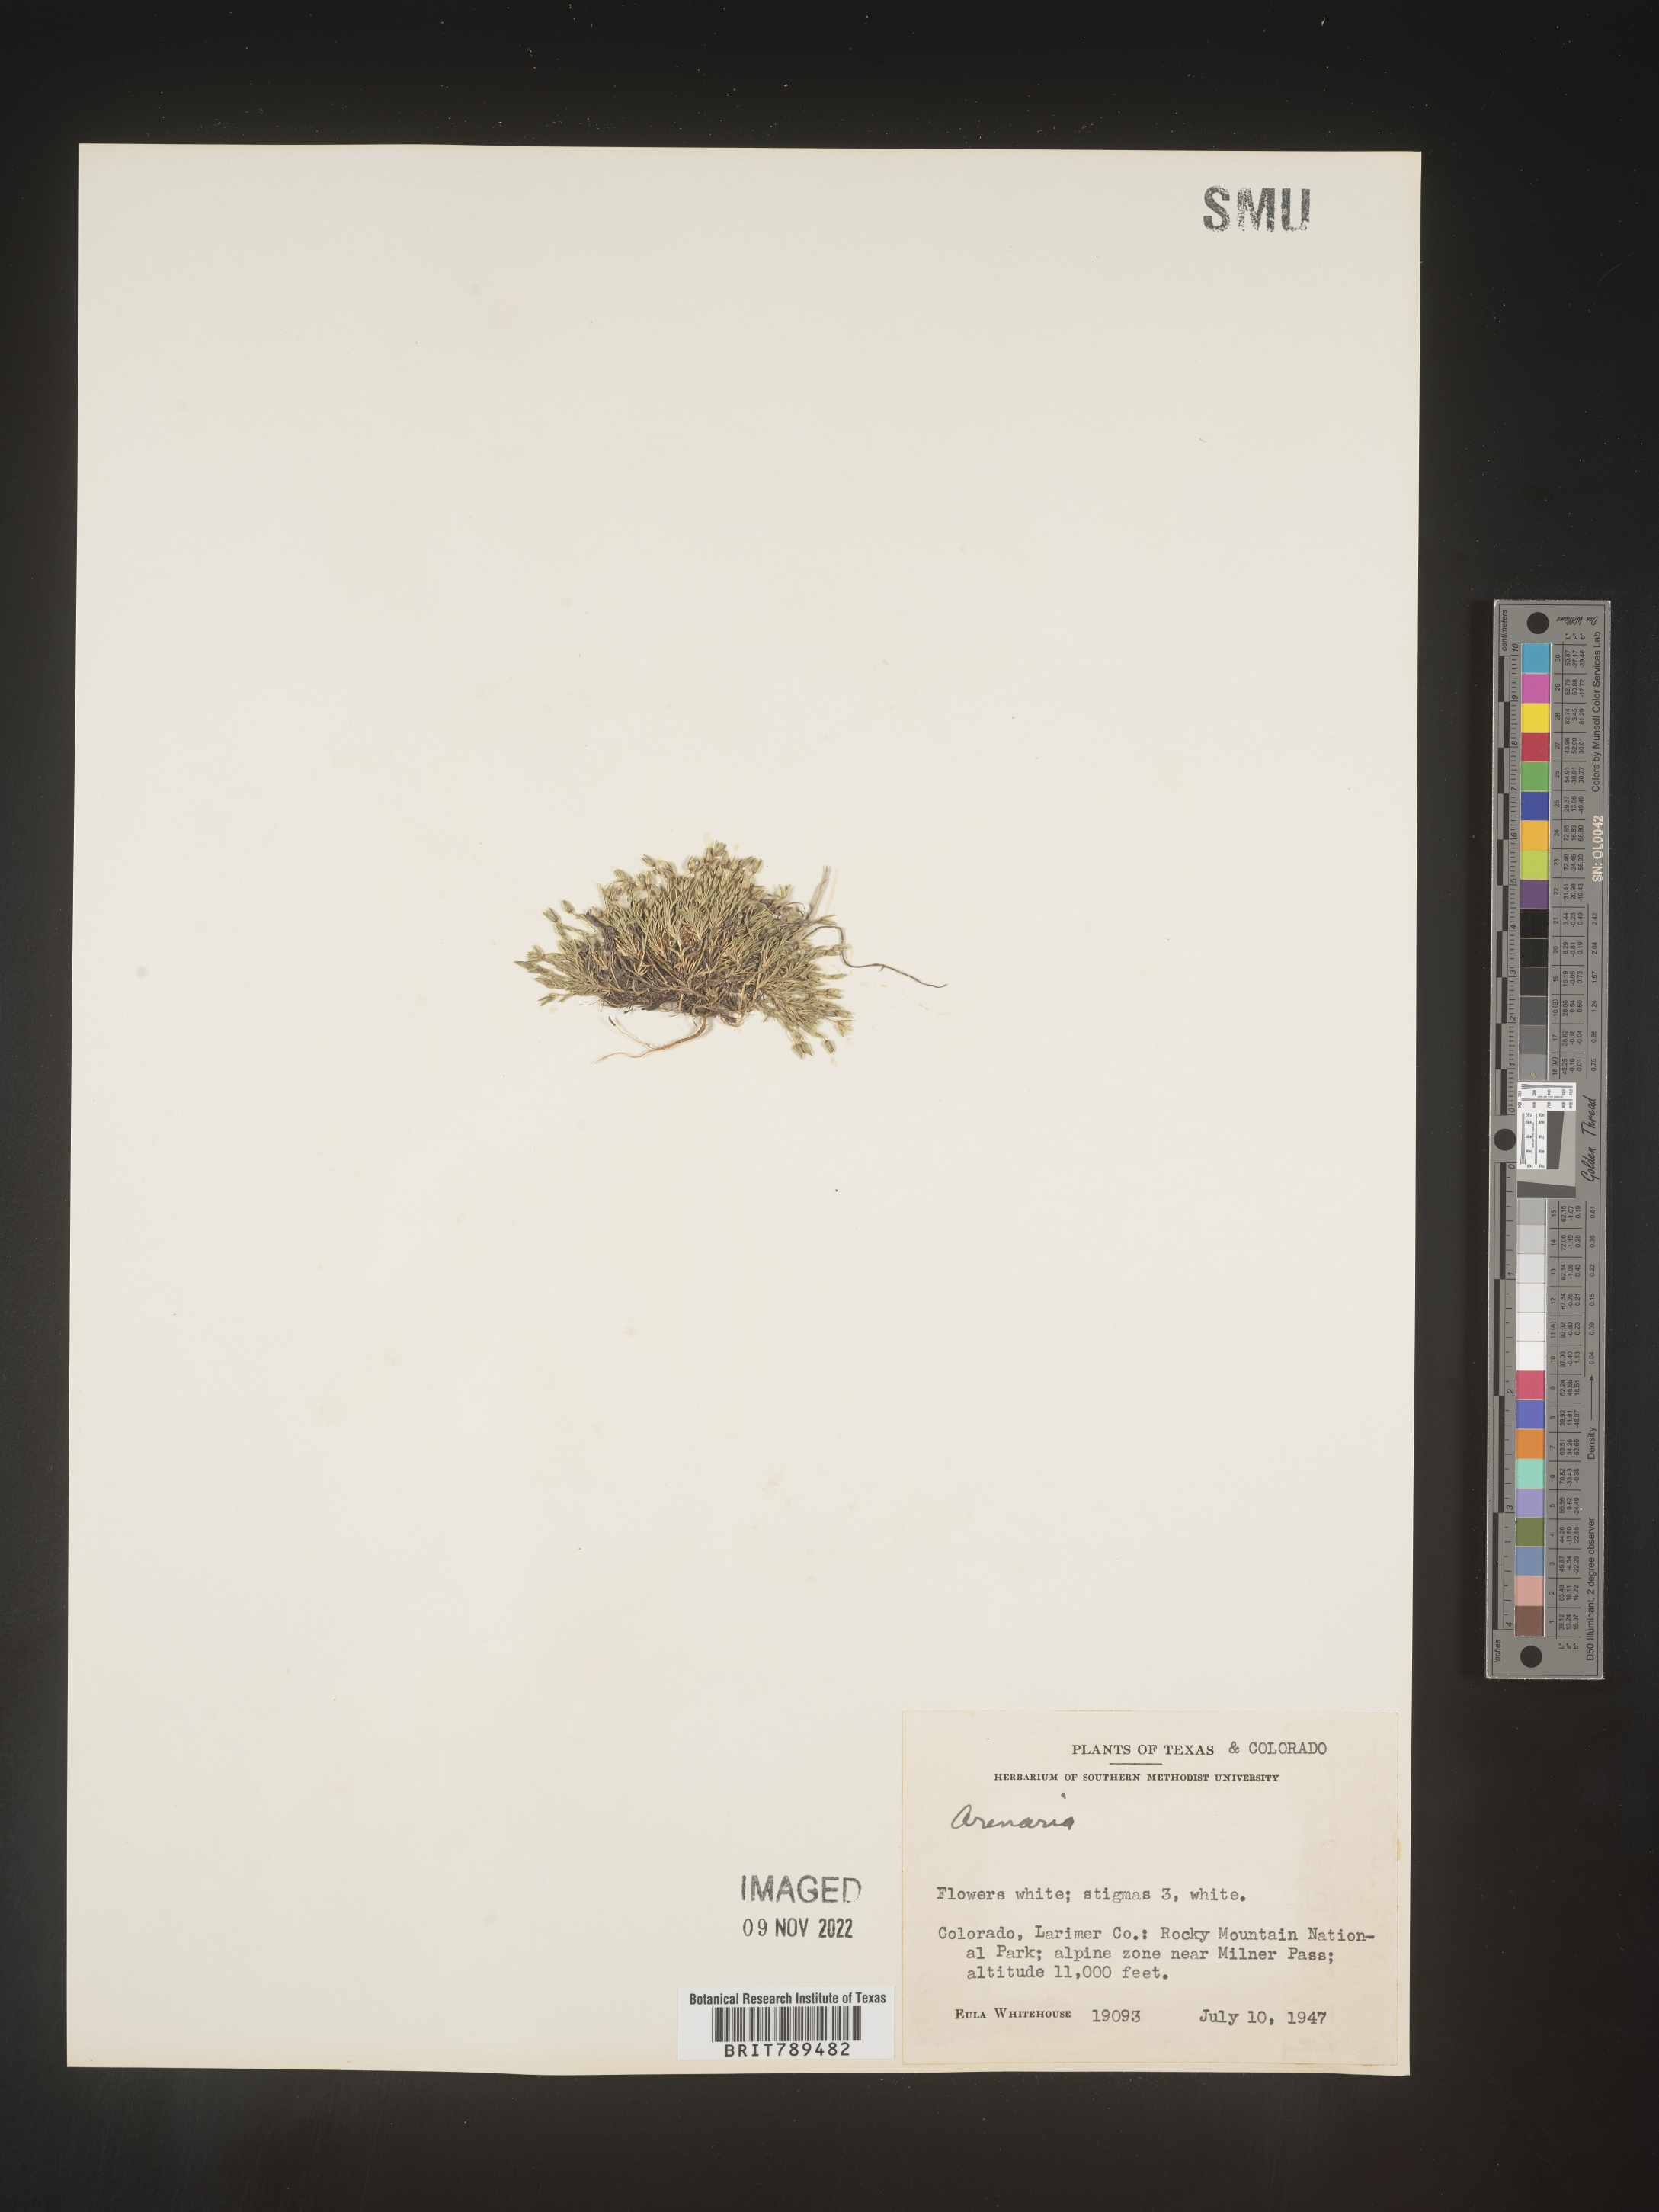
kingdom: Plantae
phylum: Tracheophyta
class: Magnoliopsida
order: Caryophyllales
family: Caryophyllaceae
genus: Arenaria
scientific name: Arenaria
